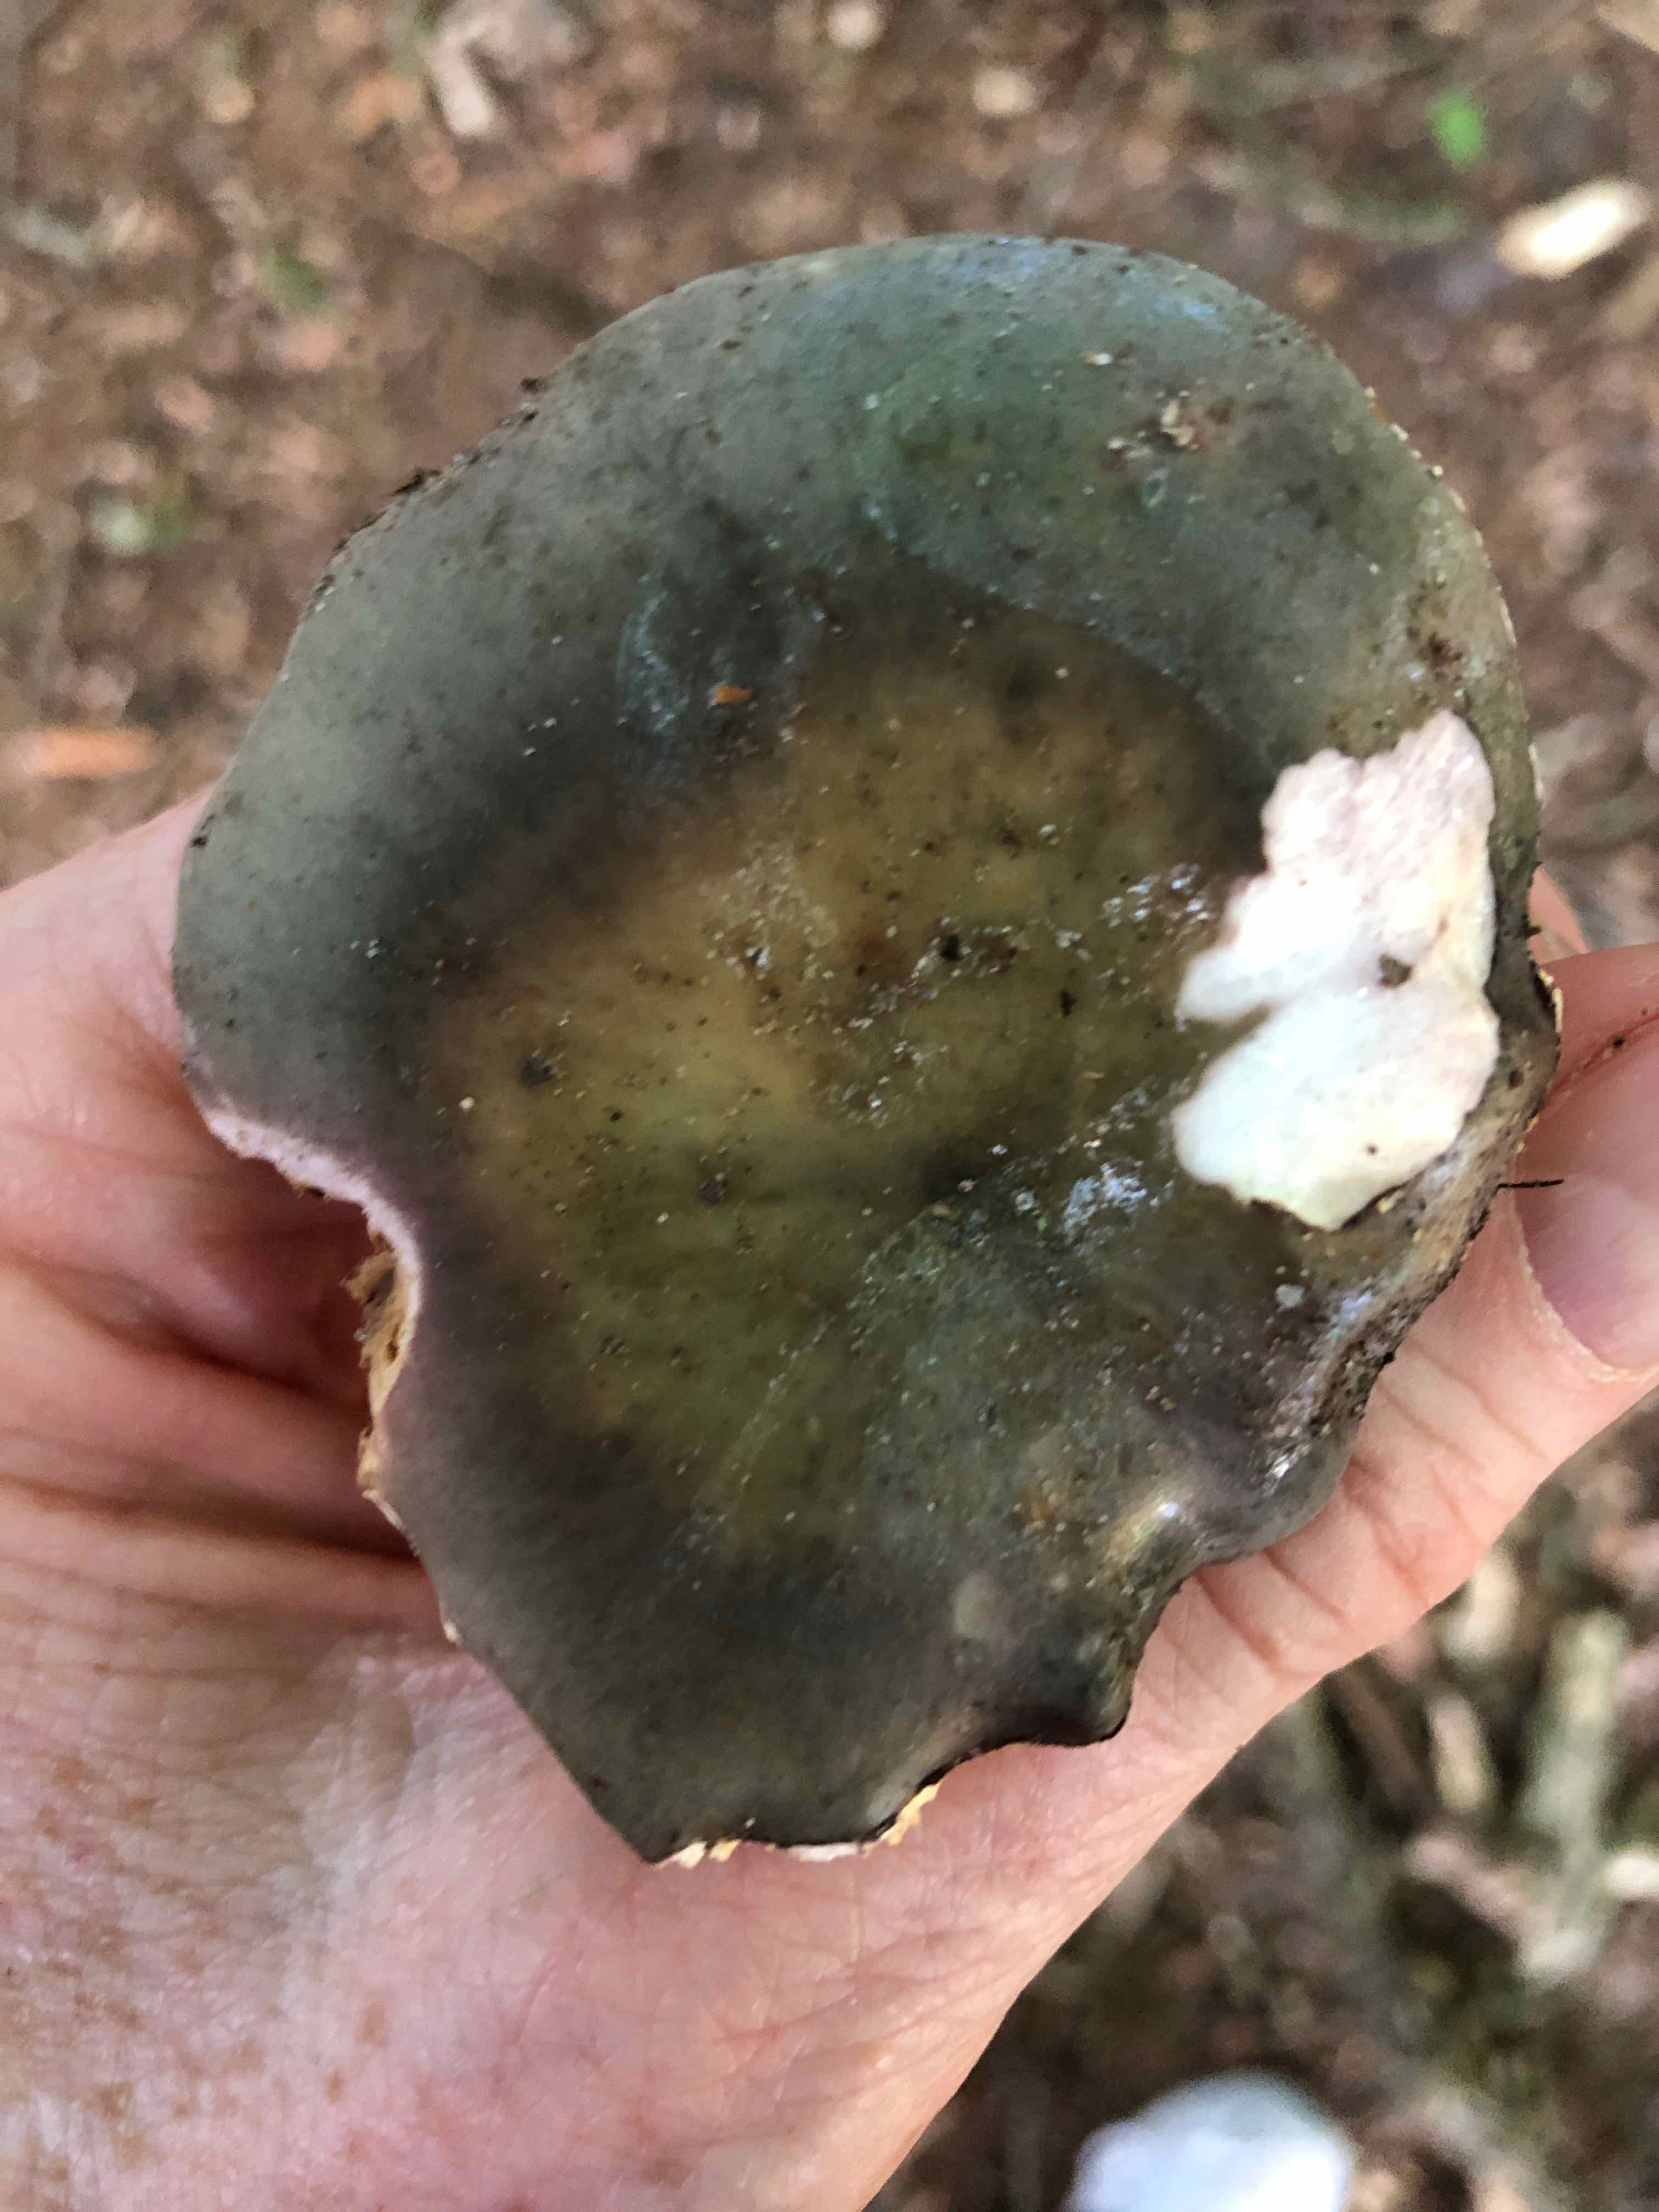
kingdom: Fungi
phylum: Basidiomycota
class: Agaricomycetes
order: Russulales
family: Russulaceae
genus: Russula
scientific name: Russula ionochlora
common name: violetgrøn skørhat
